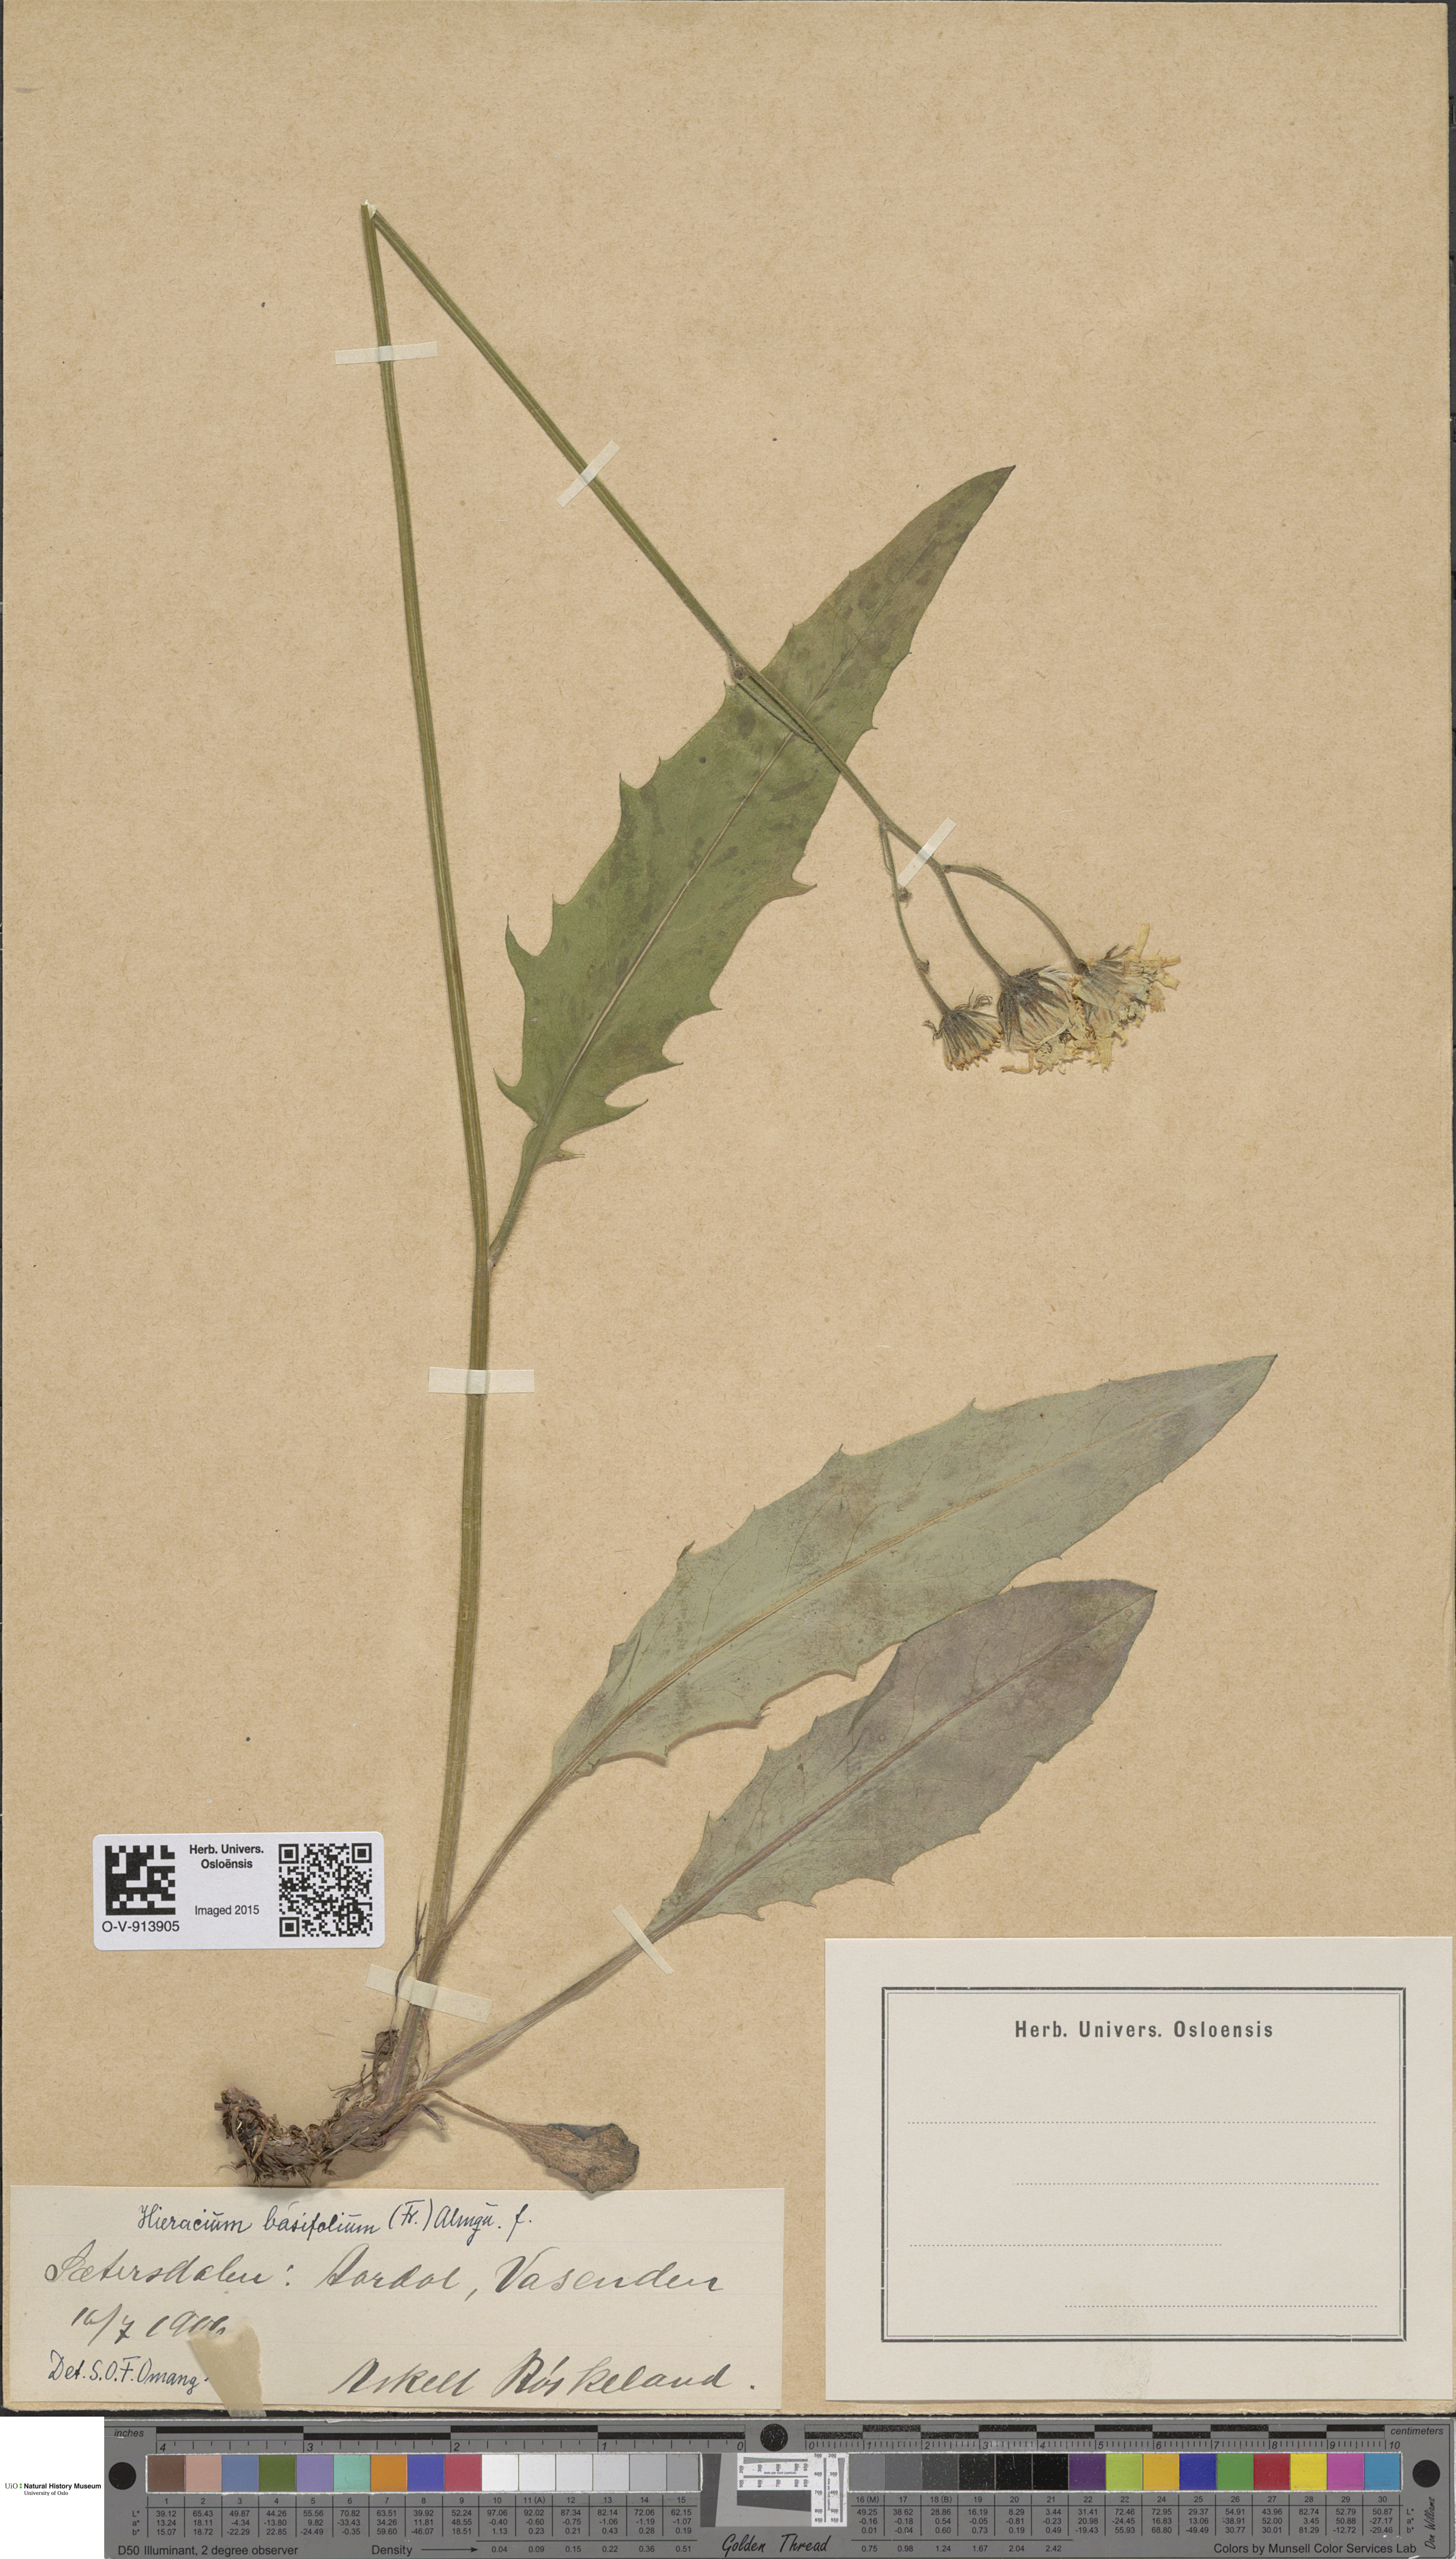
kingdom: Plantae
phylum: Tracheophyta
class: Magnoliopsida
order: Asterales
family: Asteraceae
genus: Hieracium
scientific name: Hieracium basifolium
